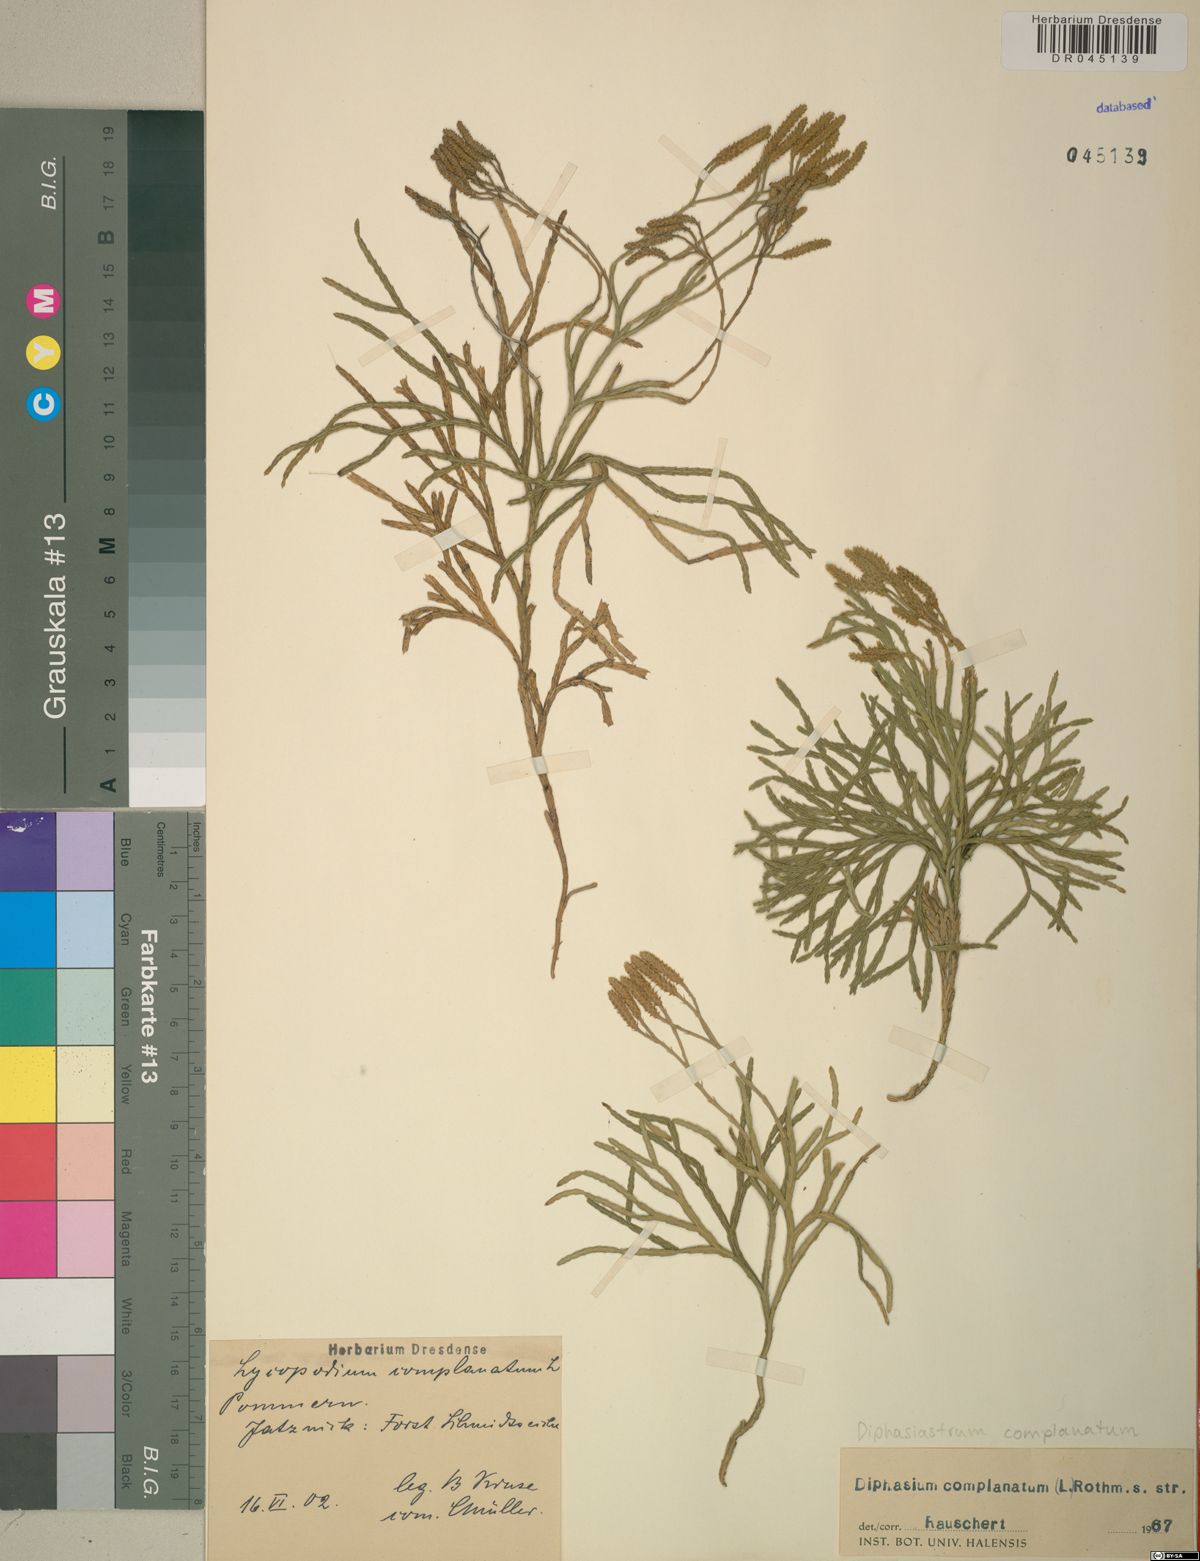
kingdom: Plantae
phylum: Tracheophyta
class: Lycopodiopsida
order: Lycopodiales
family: Lycopodiaceae
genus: Diphasiastrum
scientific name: Diphasiastrum complanatum
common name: Northern running-pine
